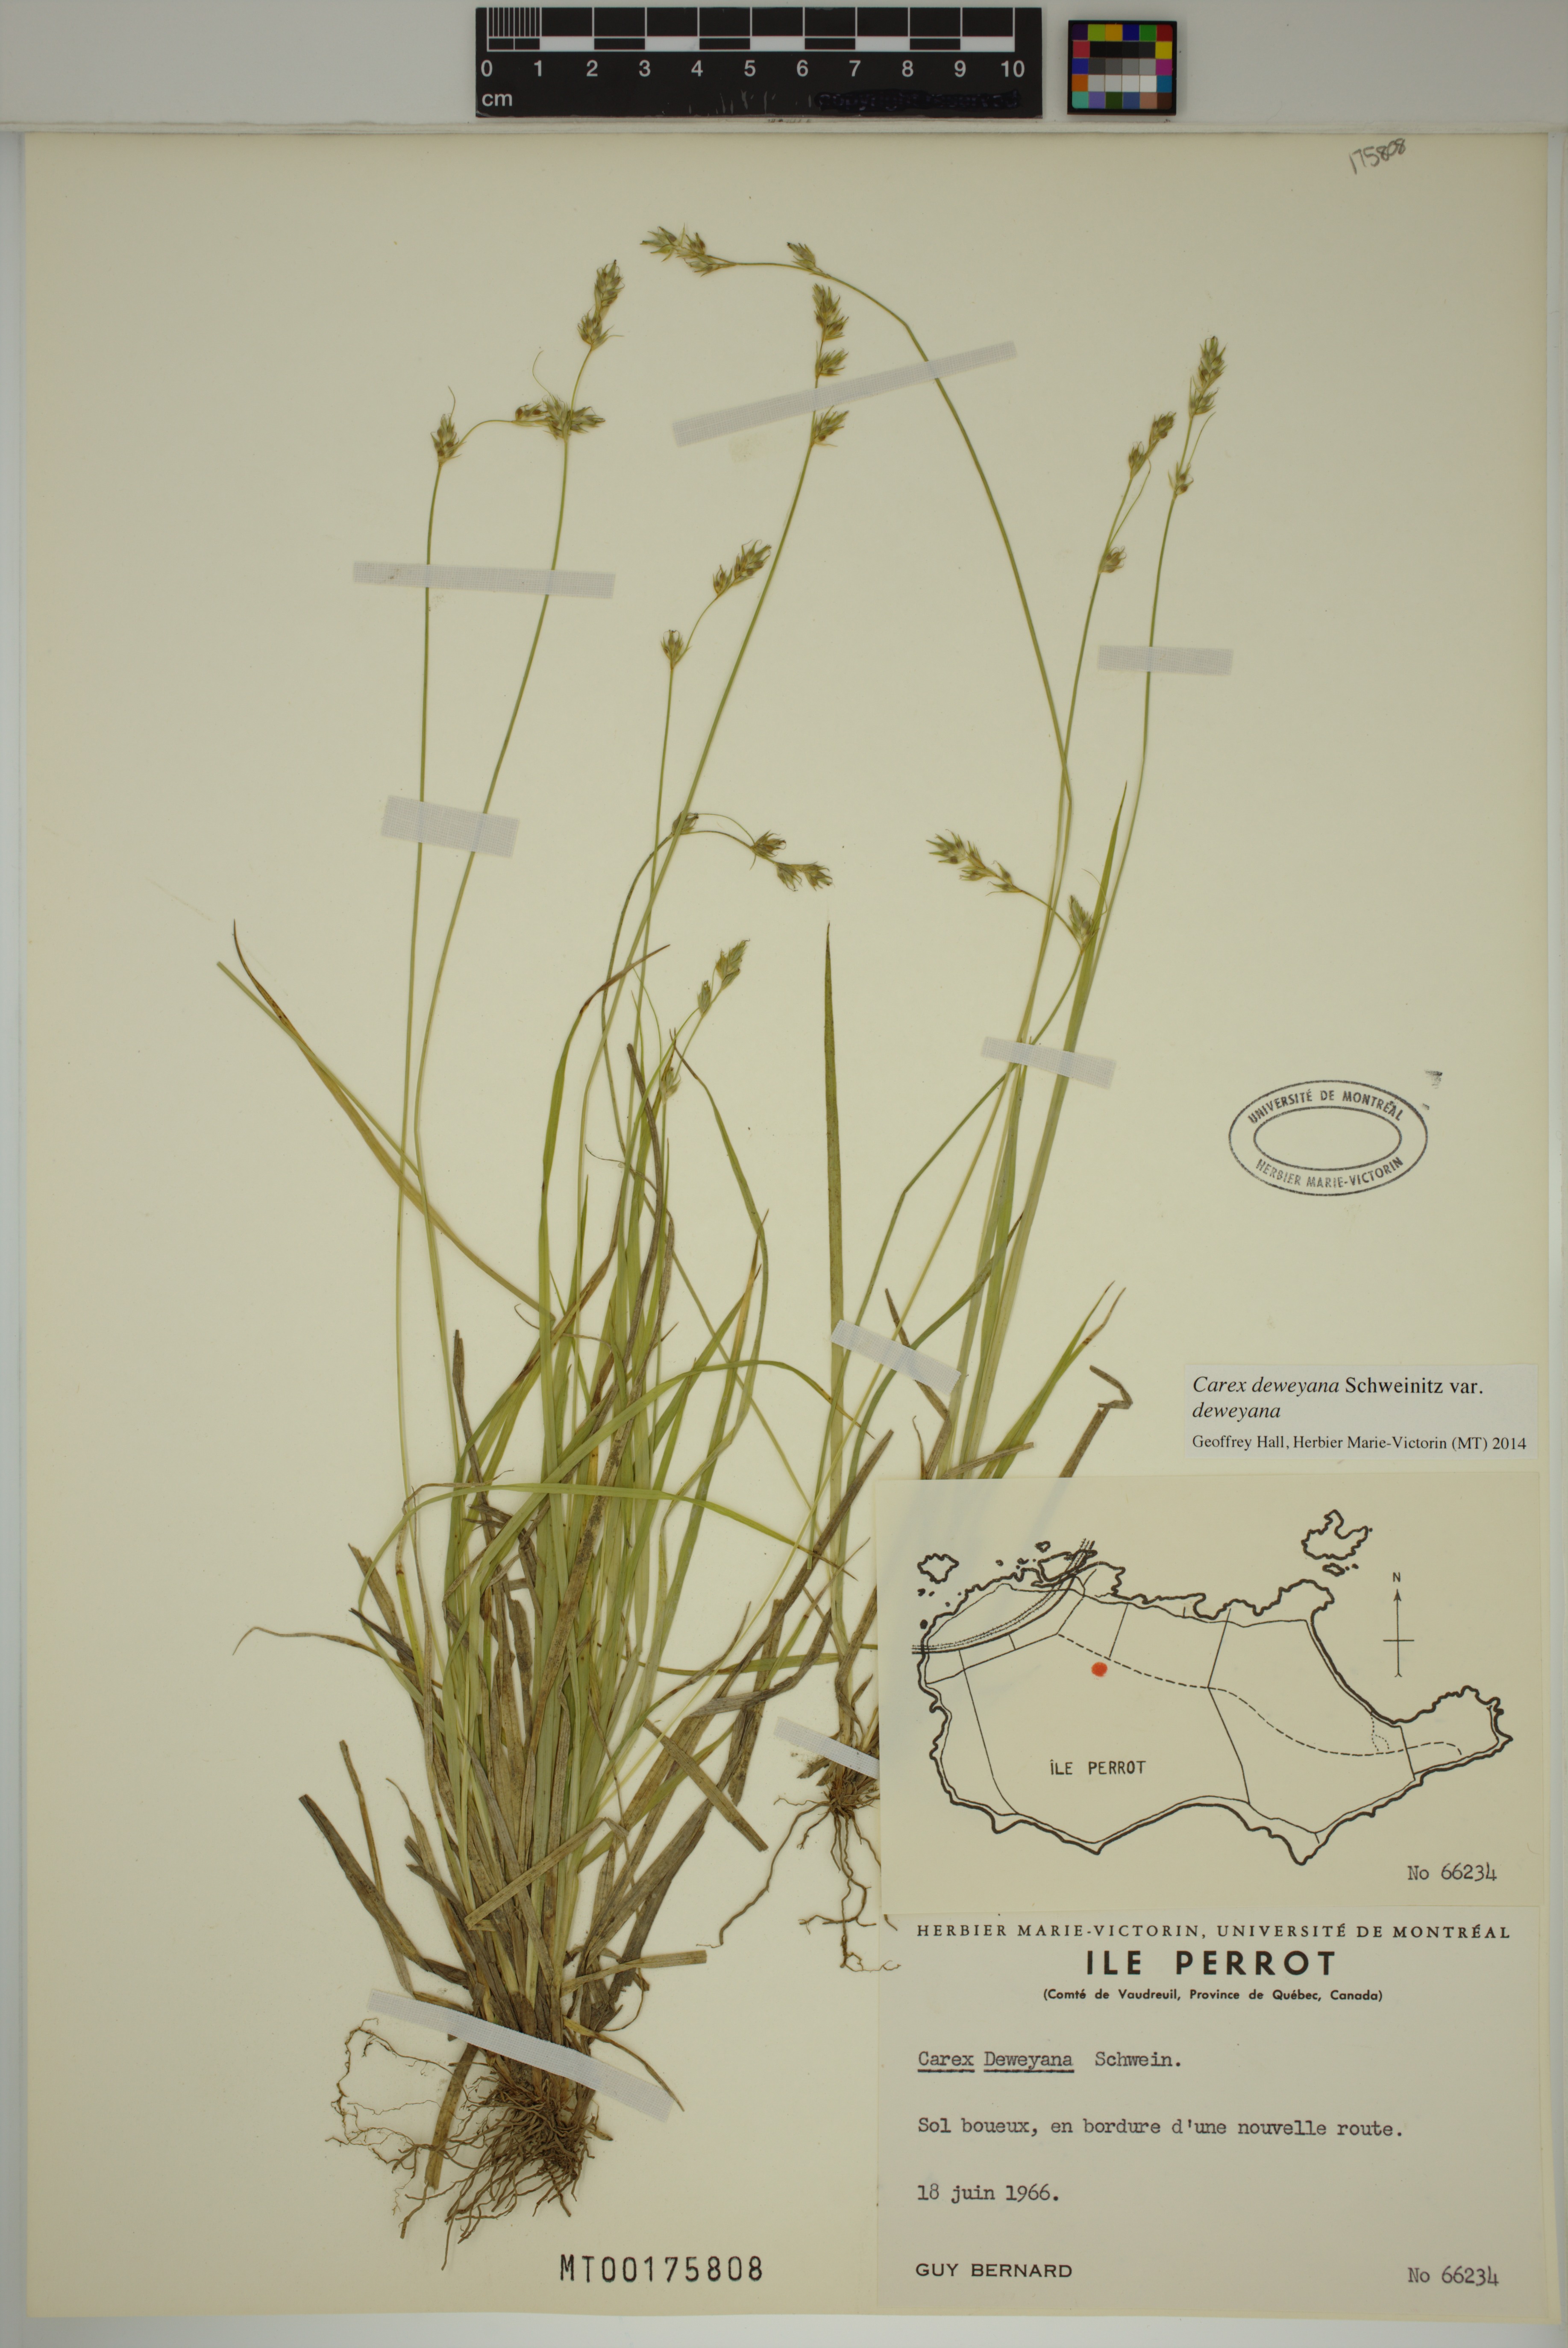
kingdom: Plantae
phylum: Tracheophyta
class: Liliopsida
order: Poales
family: Cyperaceae
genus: Carex
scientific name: Carex deweyana
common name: Dewey's sedge
